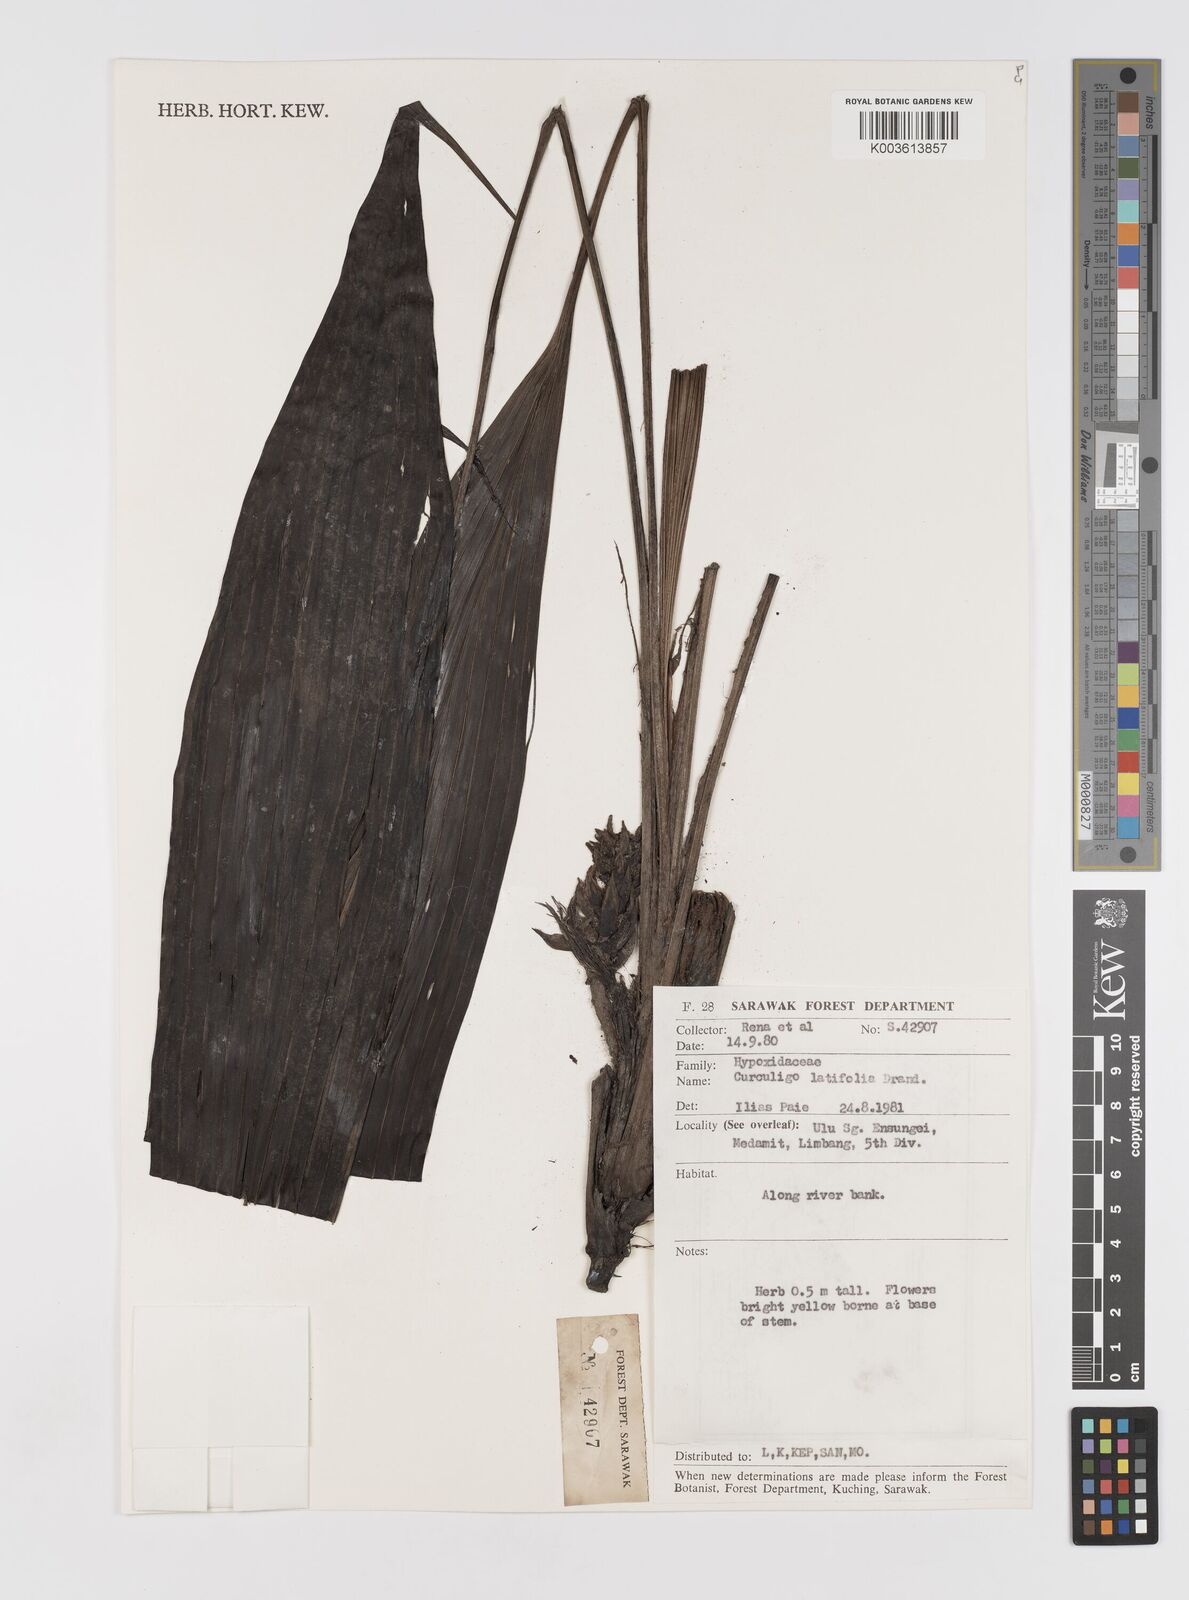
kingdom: Plantae
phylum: Tracheophyta
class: Liliopsida
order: Asparagales
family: Hypoxidaceae
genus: Curculigo
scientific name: Curculigo latifolia
